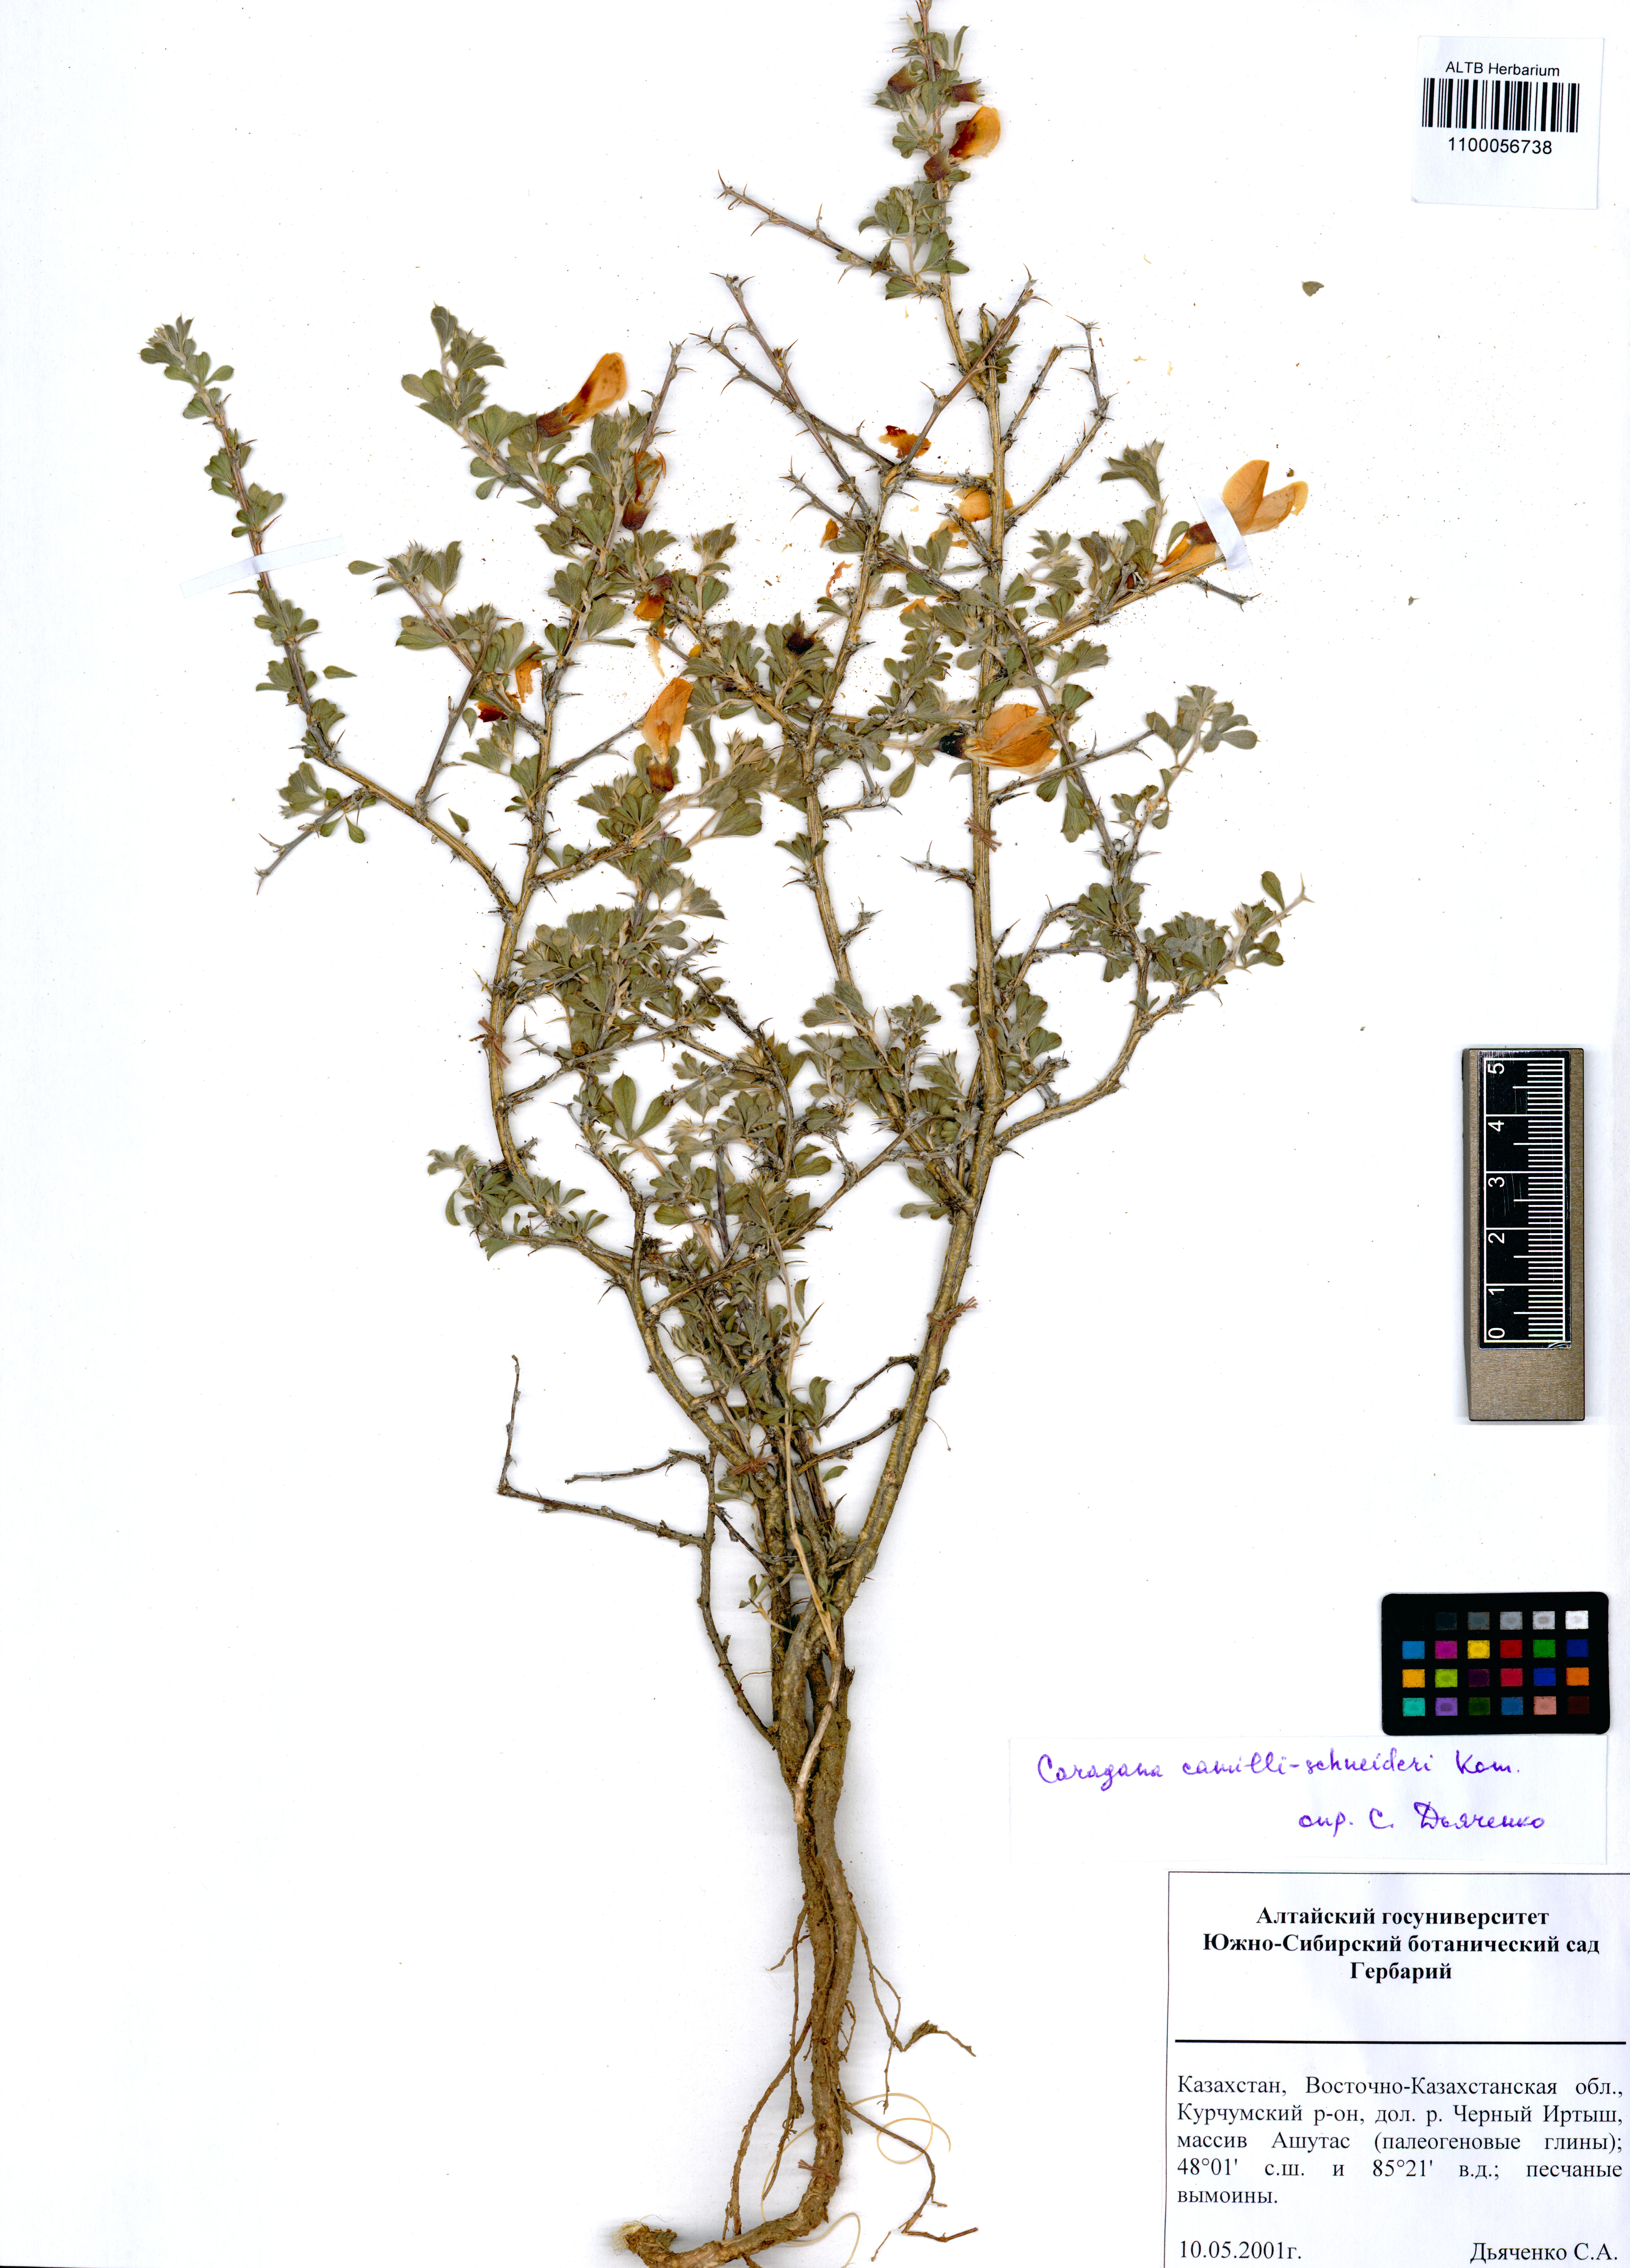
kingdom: Plantae
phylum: Tracheophyta
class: Magnoliopsida
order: Fabales
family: Fabaceae
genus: Caragana
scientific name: Caragana camilli-schneideri
